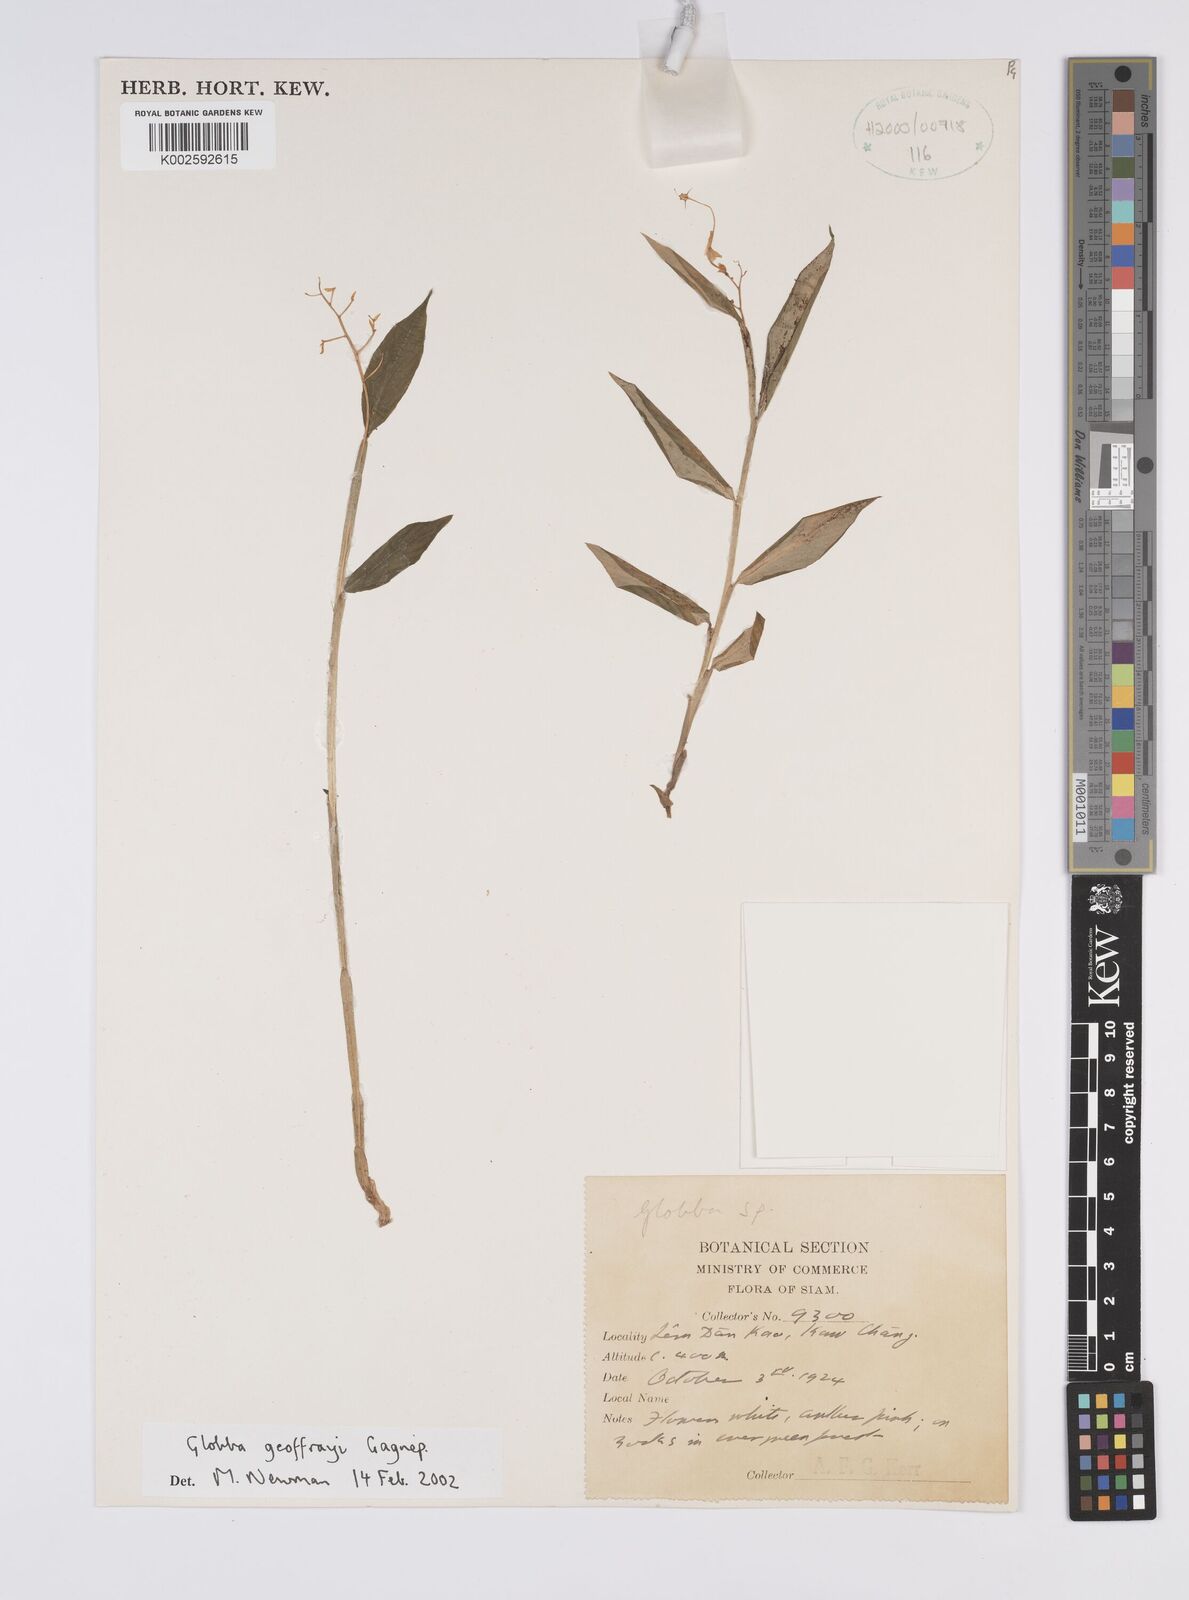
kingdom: Plantae
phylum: Tracheophyta
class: Liliopsida
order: Zingiberales
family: Zingiberaceae
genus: Globba
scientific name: Globba geoffrayi
